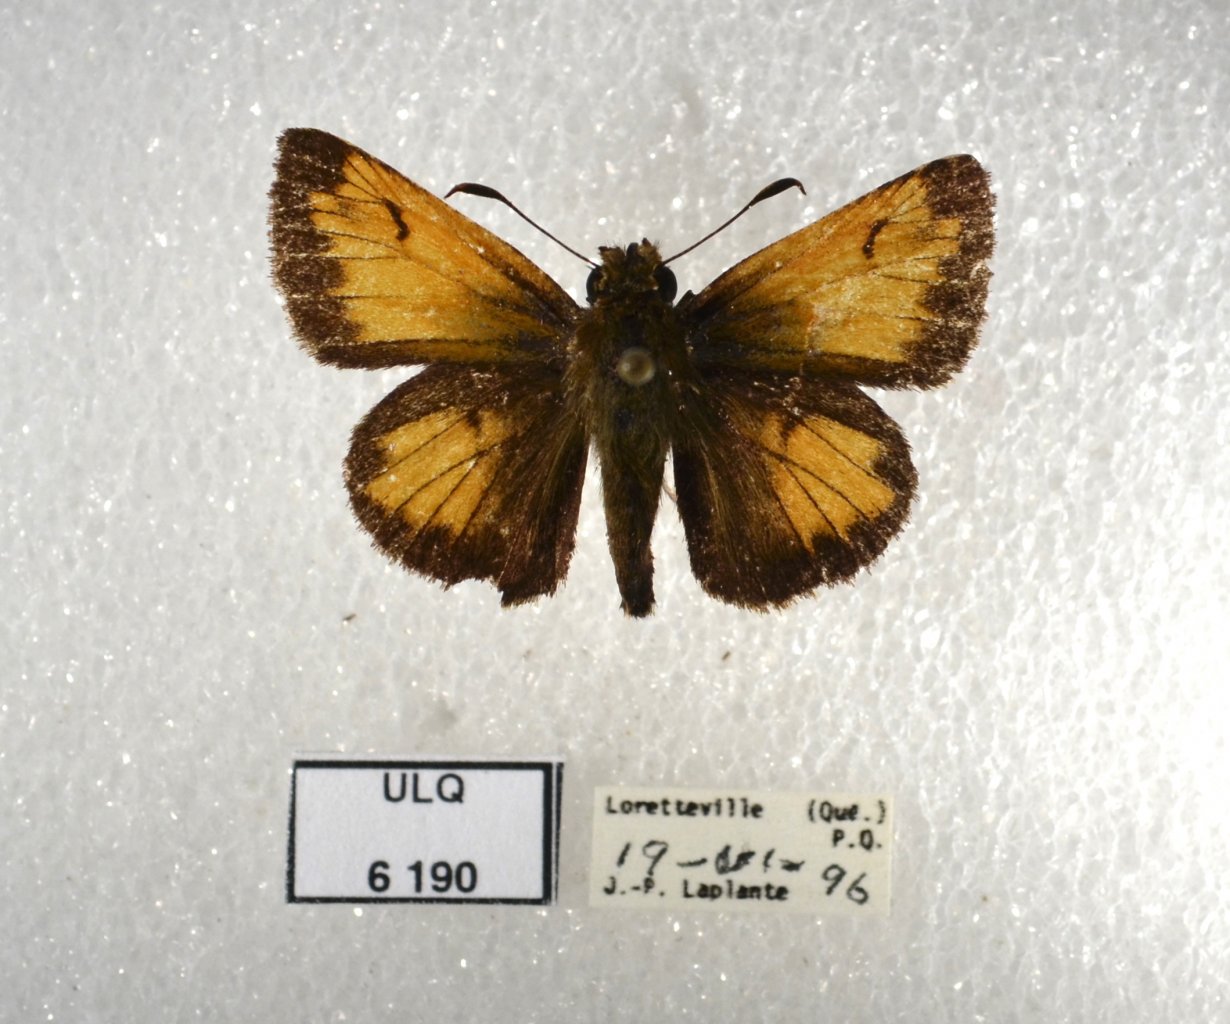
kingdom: Animalia
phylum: Arthropoda
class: Insecta
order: Lepidoptera
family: Hesperiidae
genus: Lon
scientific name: Lon hobomok
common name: Hobomok Skipper
